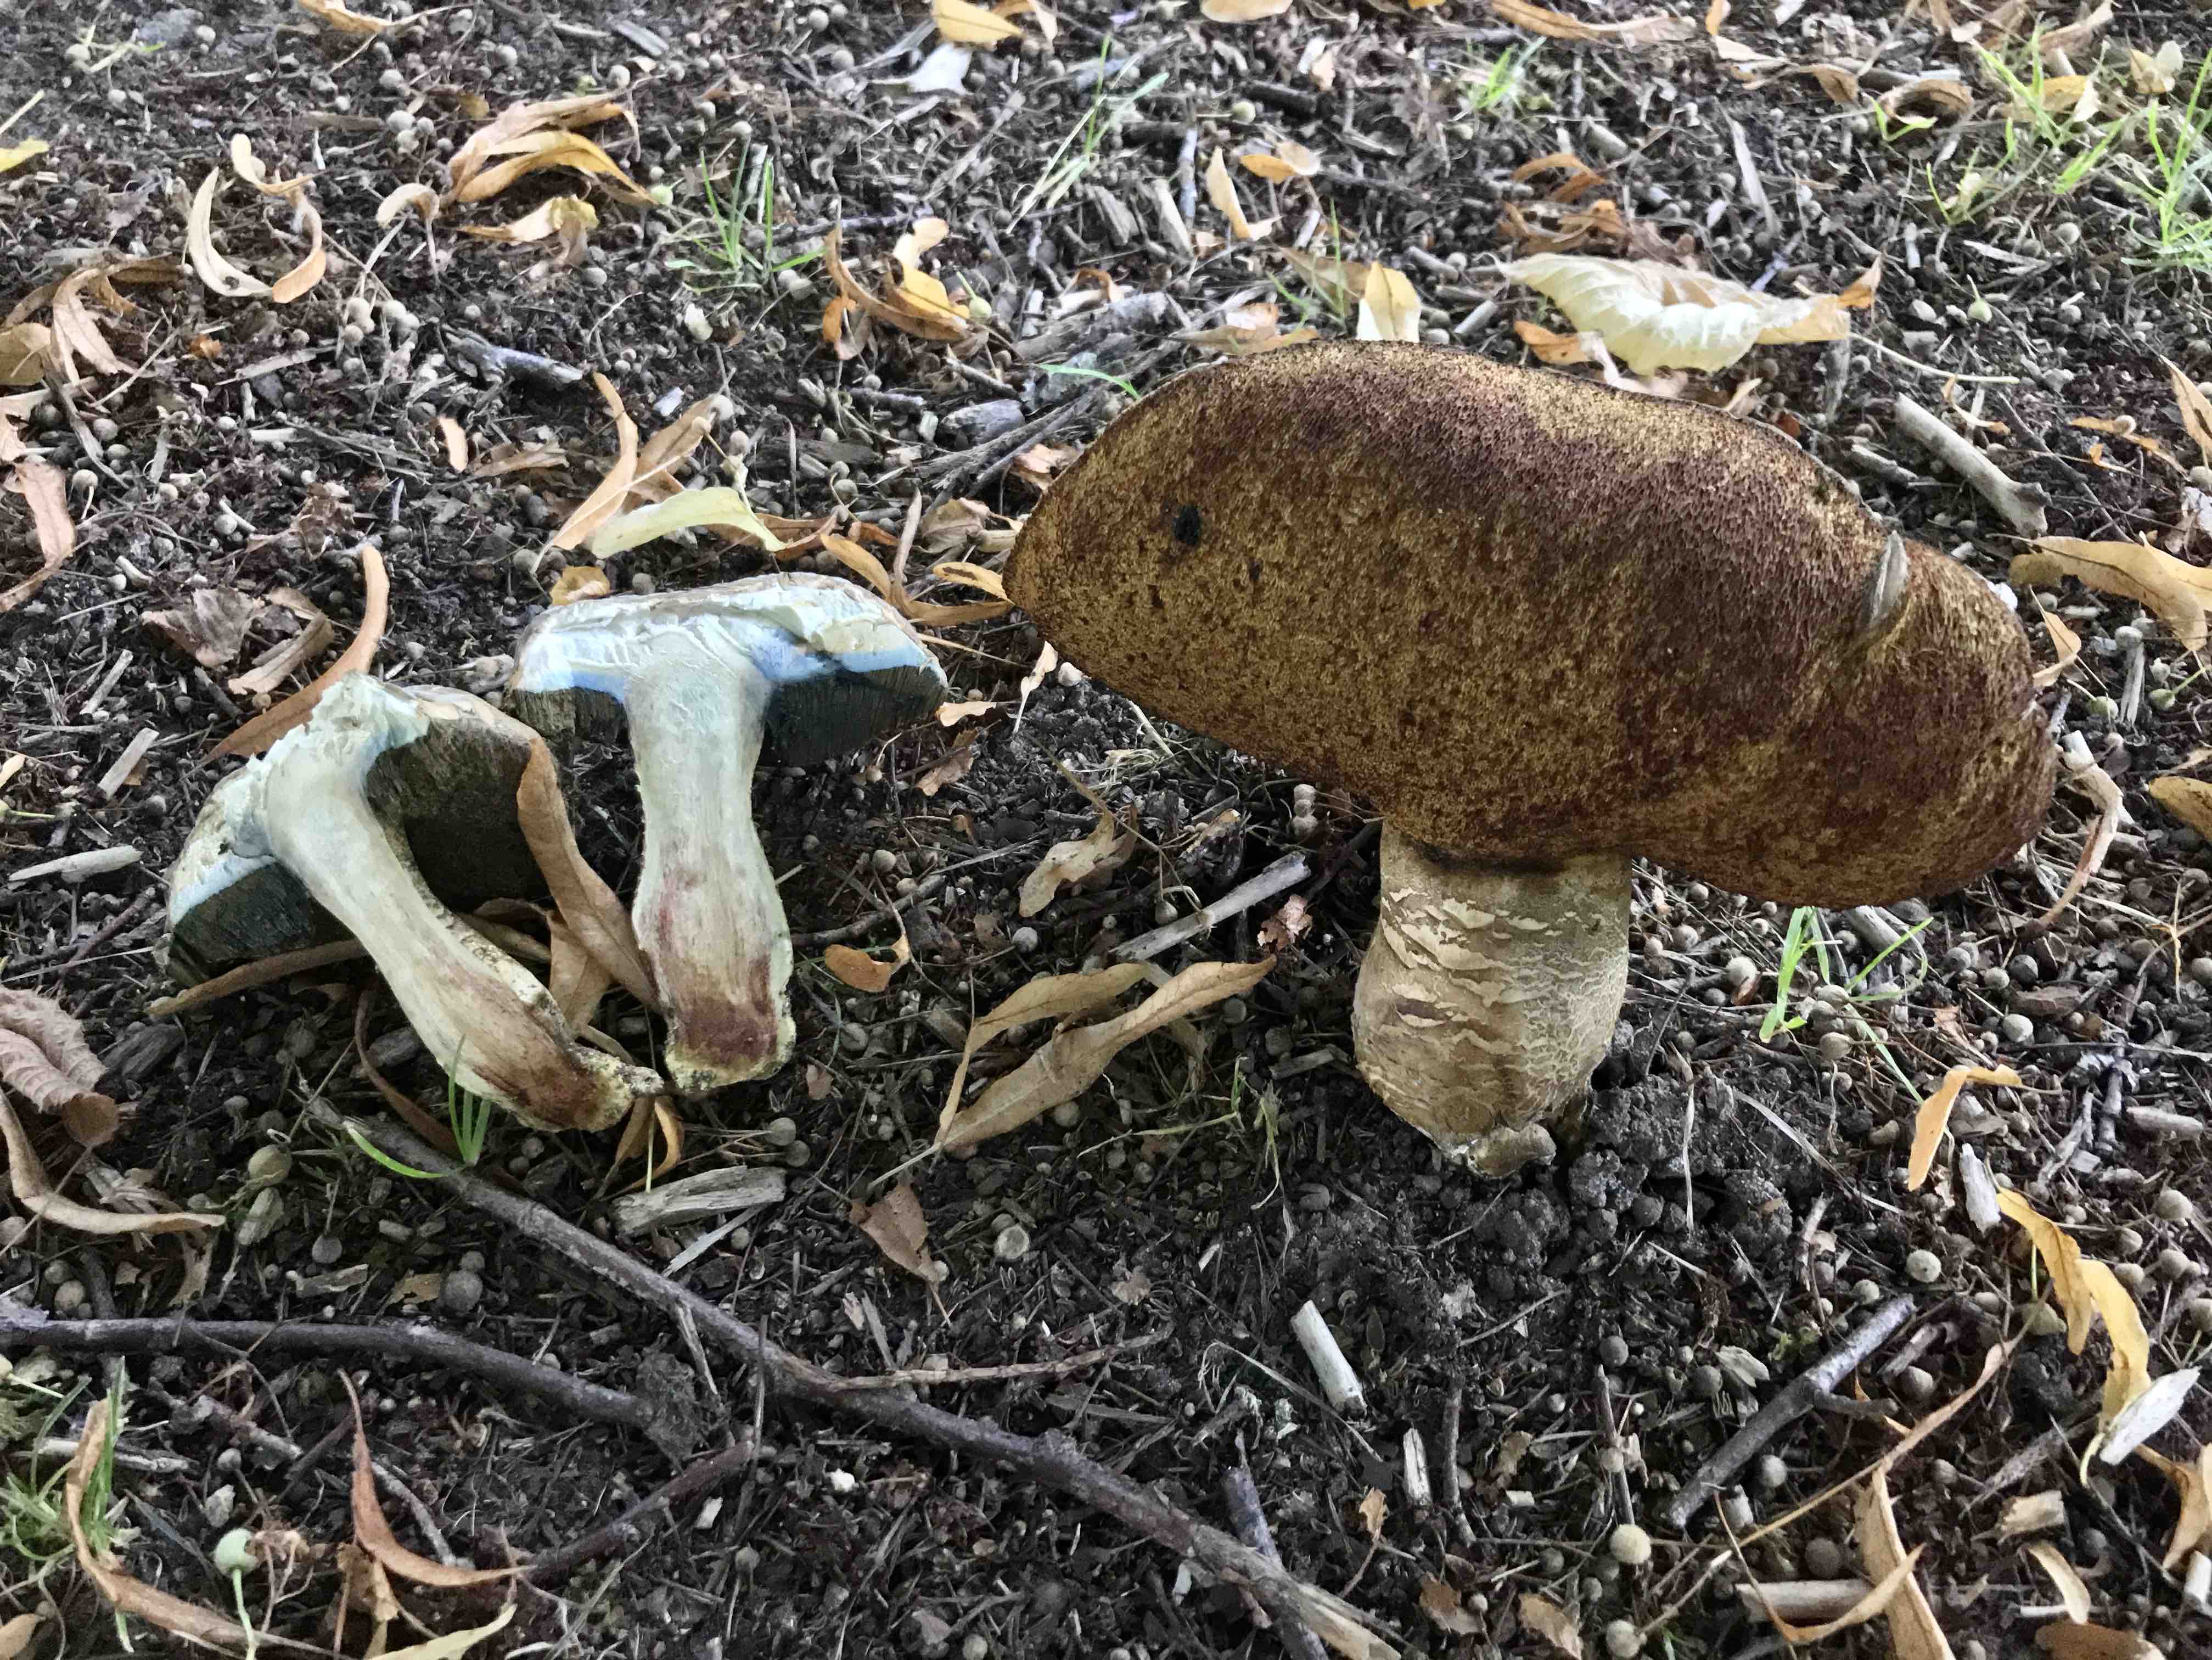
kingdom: Fungi
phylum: Basidiomycota
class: Agaricomycetes
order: Boletales
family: Boletaceae
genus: Caloboletus
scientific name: Caloboletus radicans
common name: rod-rørhat
